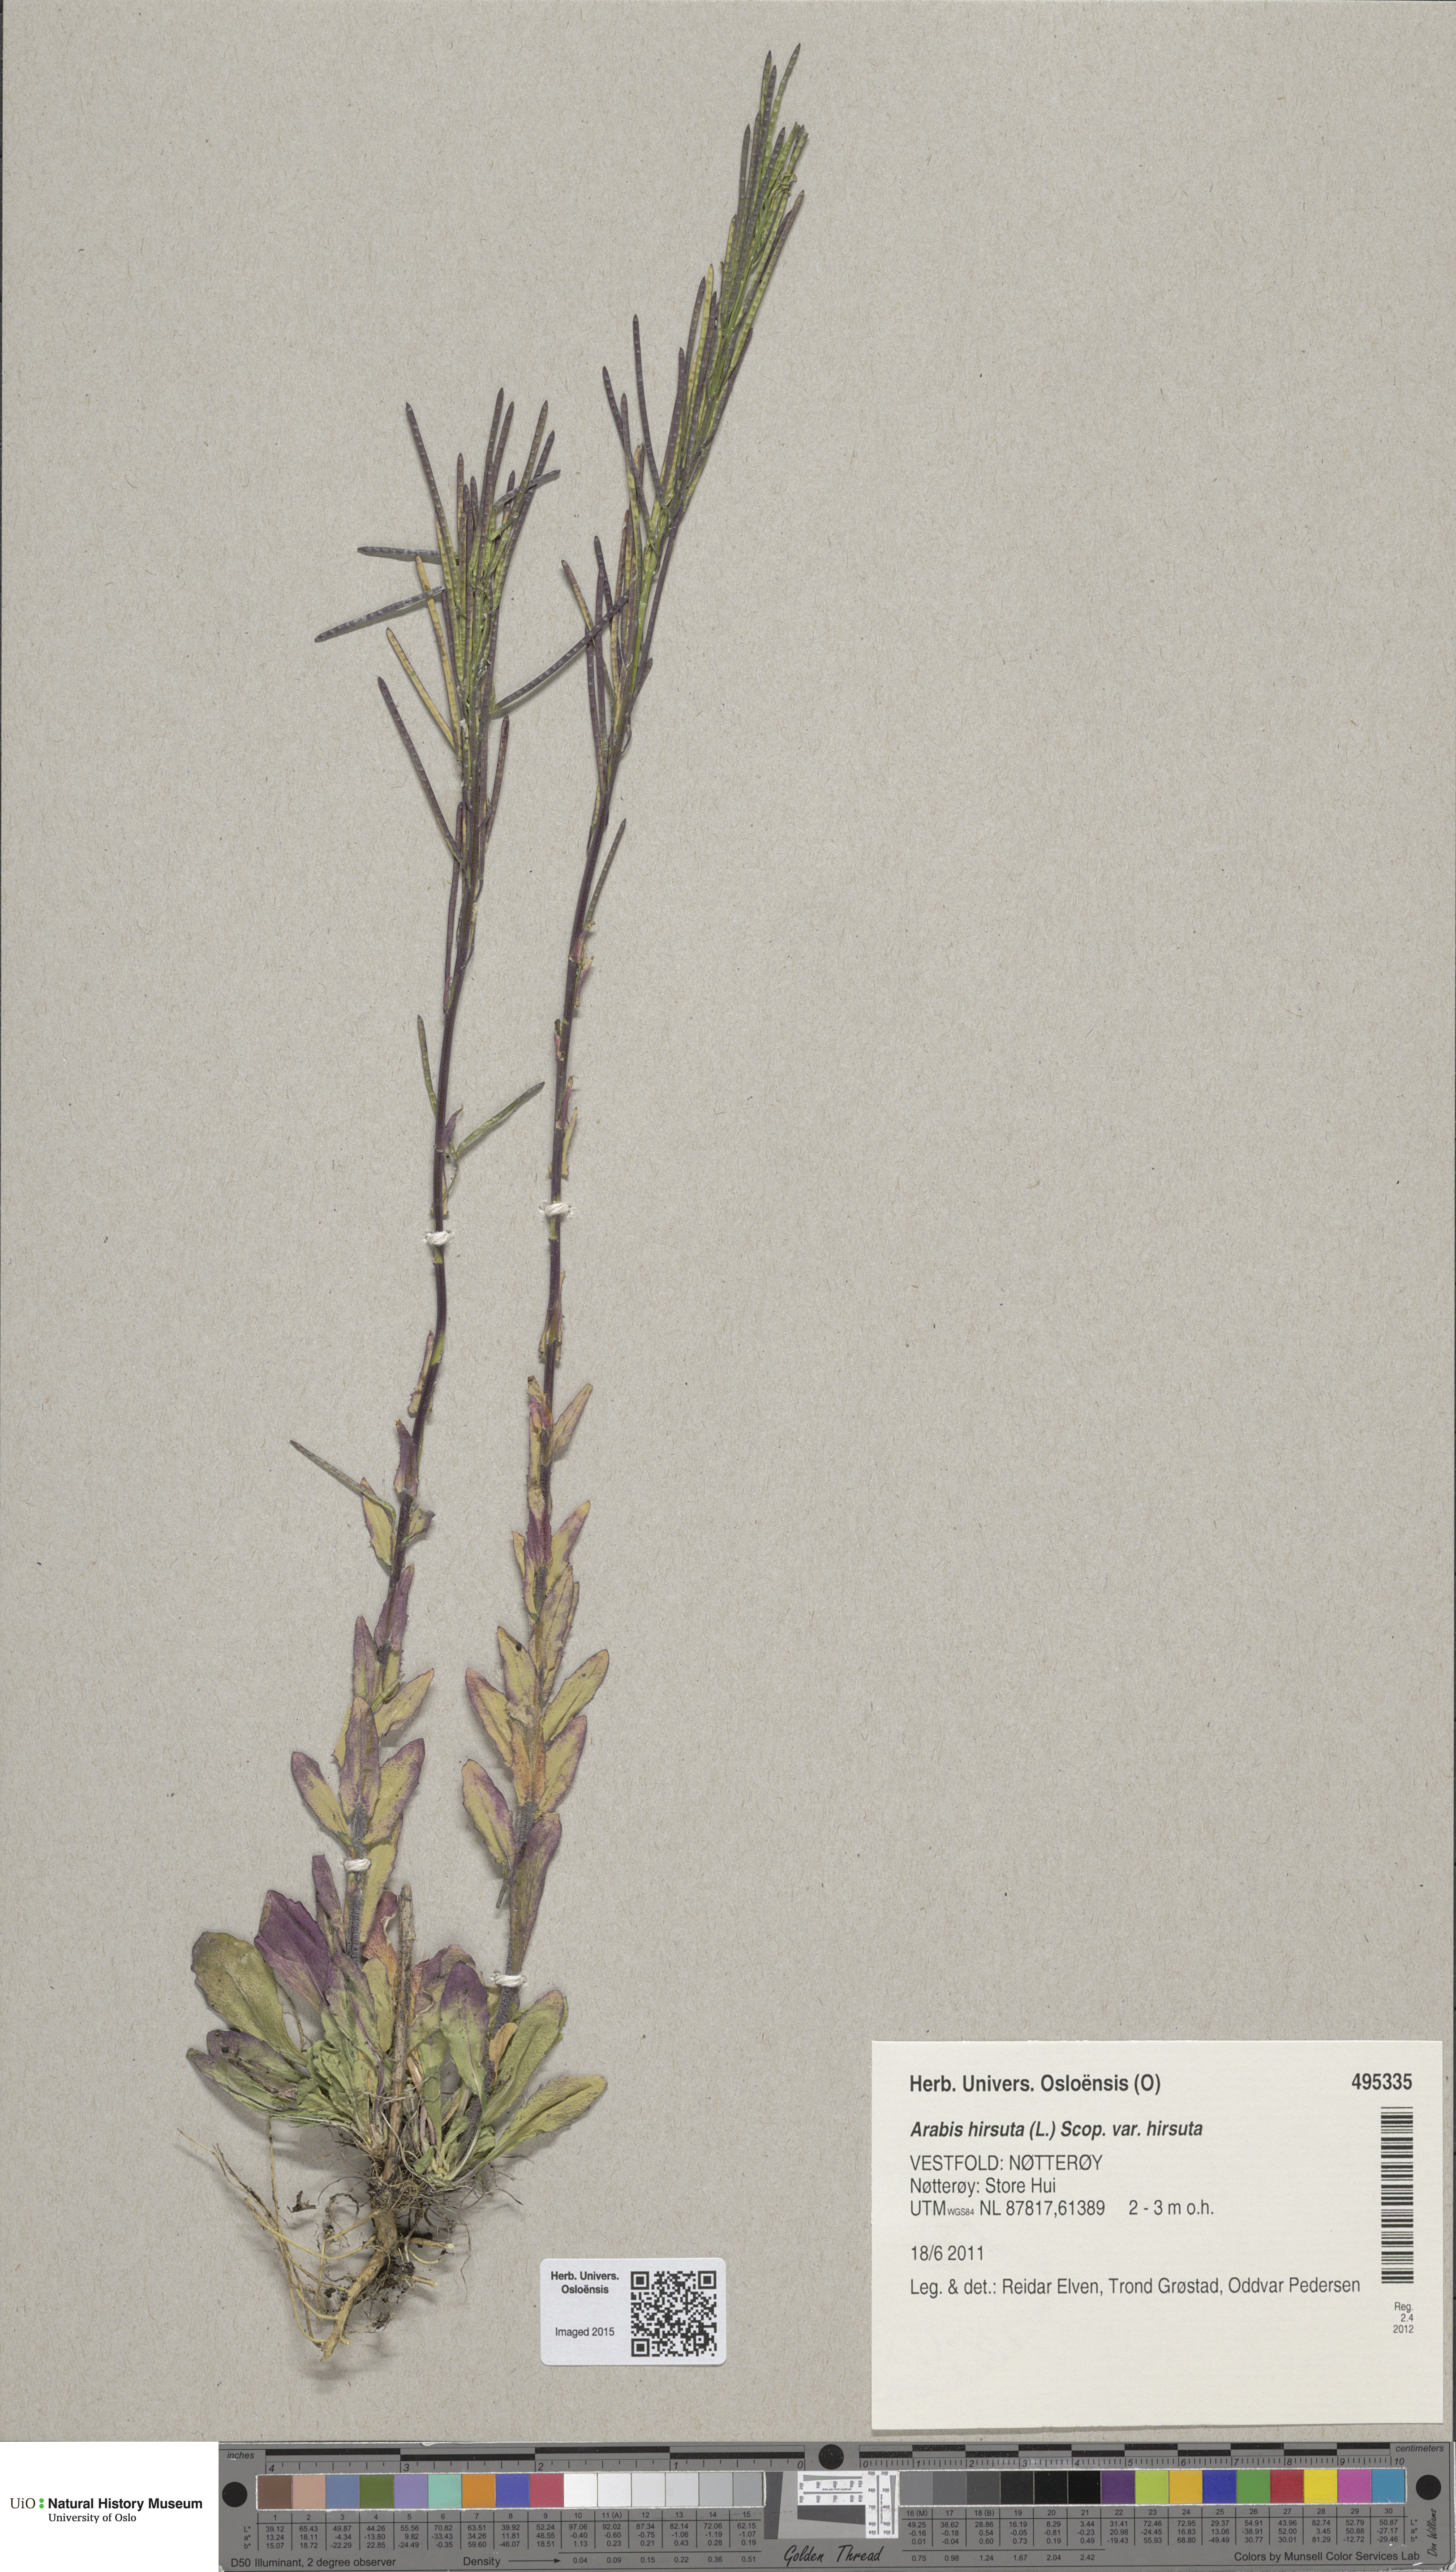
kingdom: Plantae
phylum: Tracheophyta
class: Magnoliopsida
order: Brassicales
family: Brassicaceae
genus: Arabis
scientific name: Arabis hirsuta
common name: Hairy rock-cress
